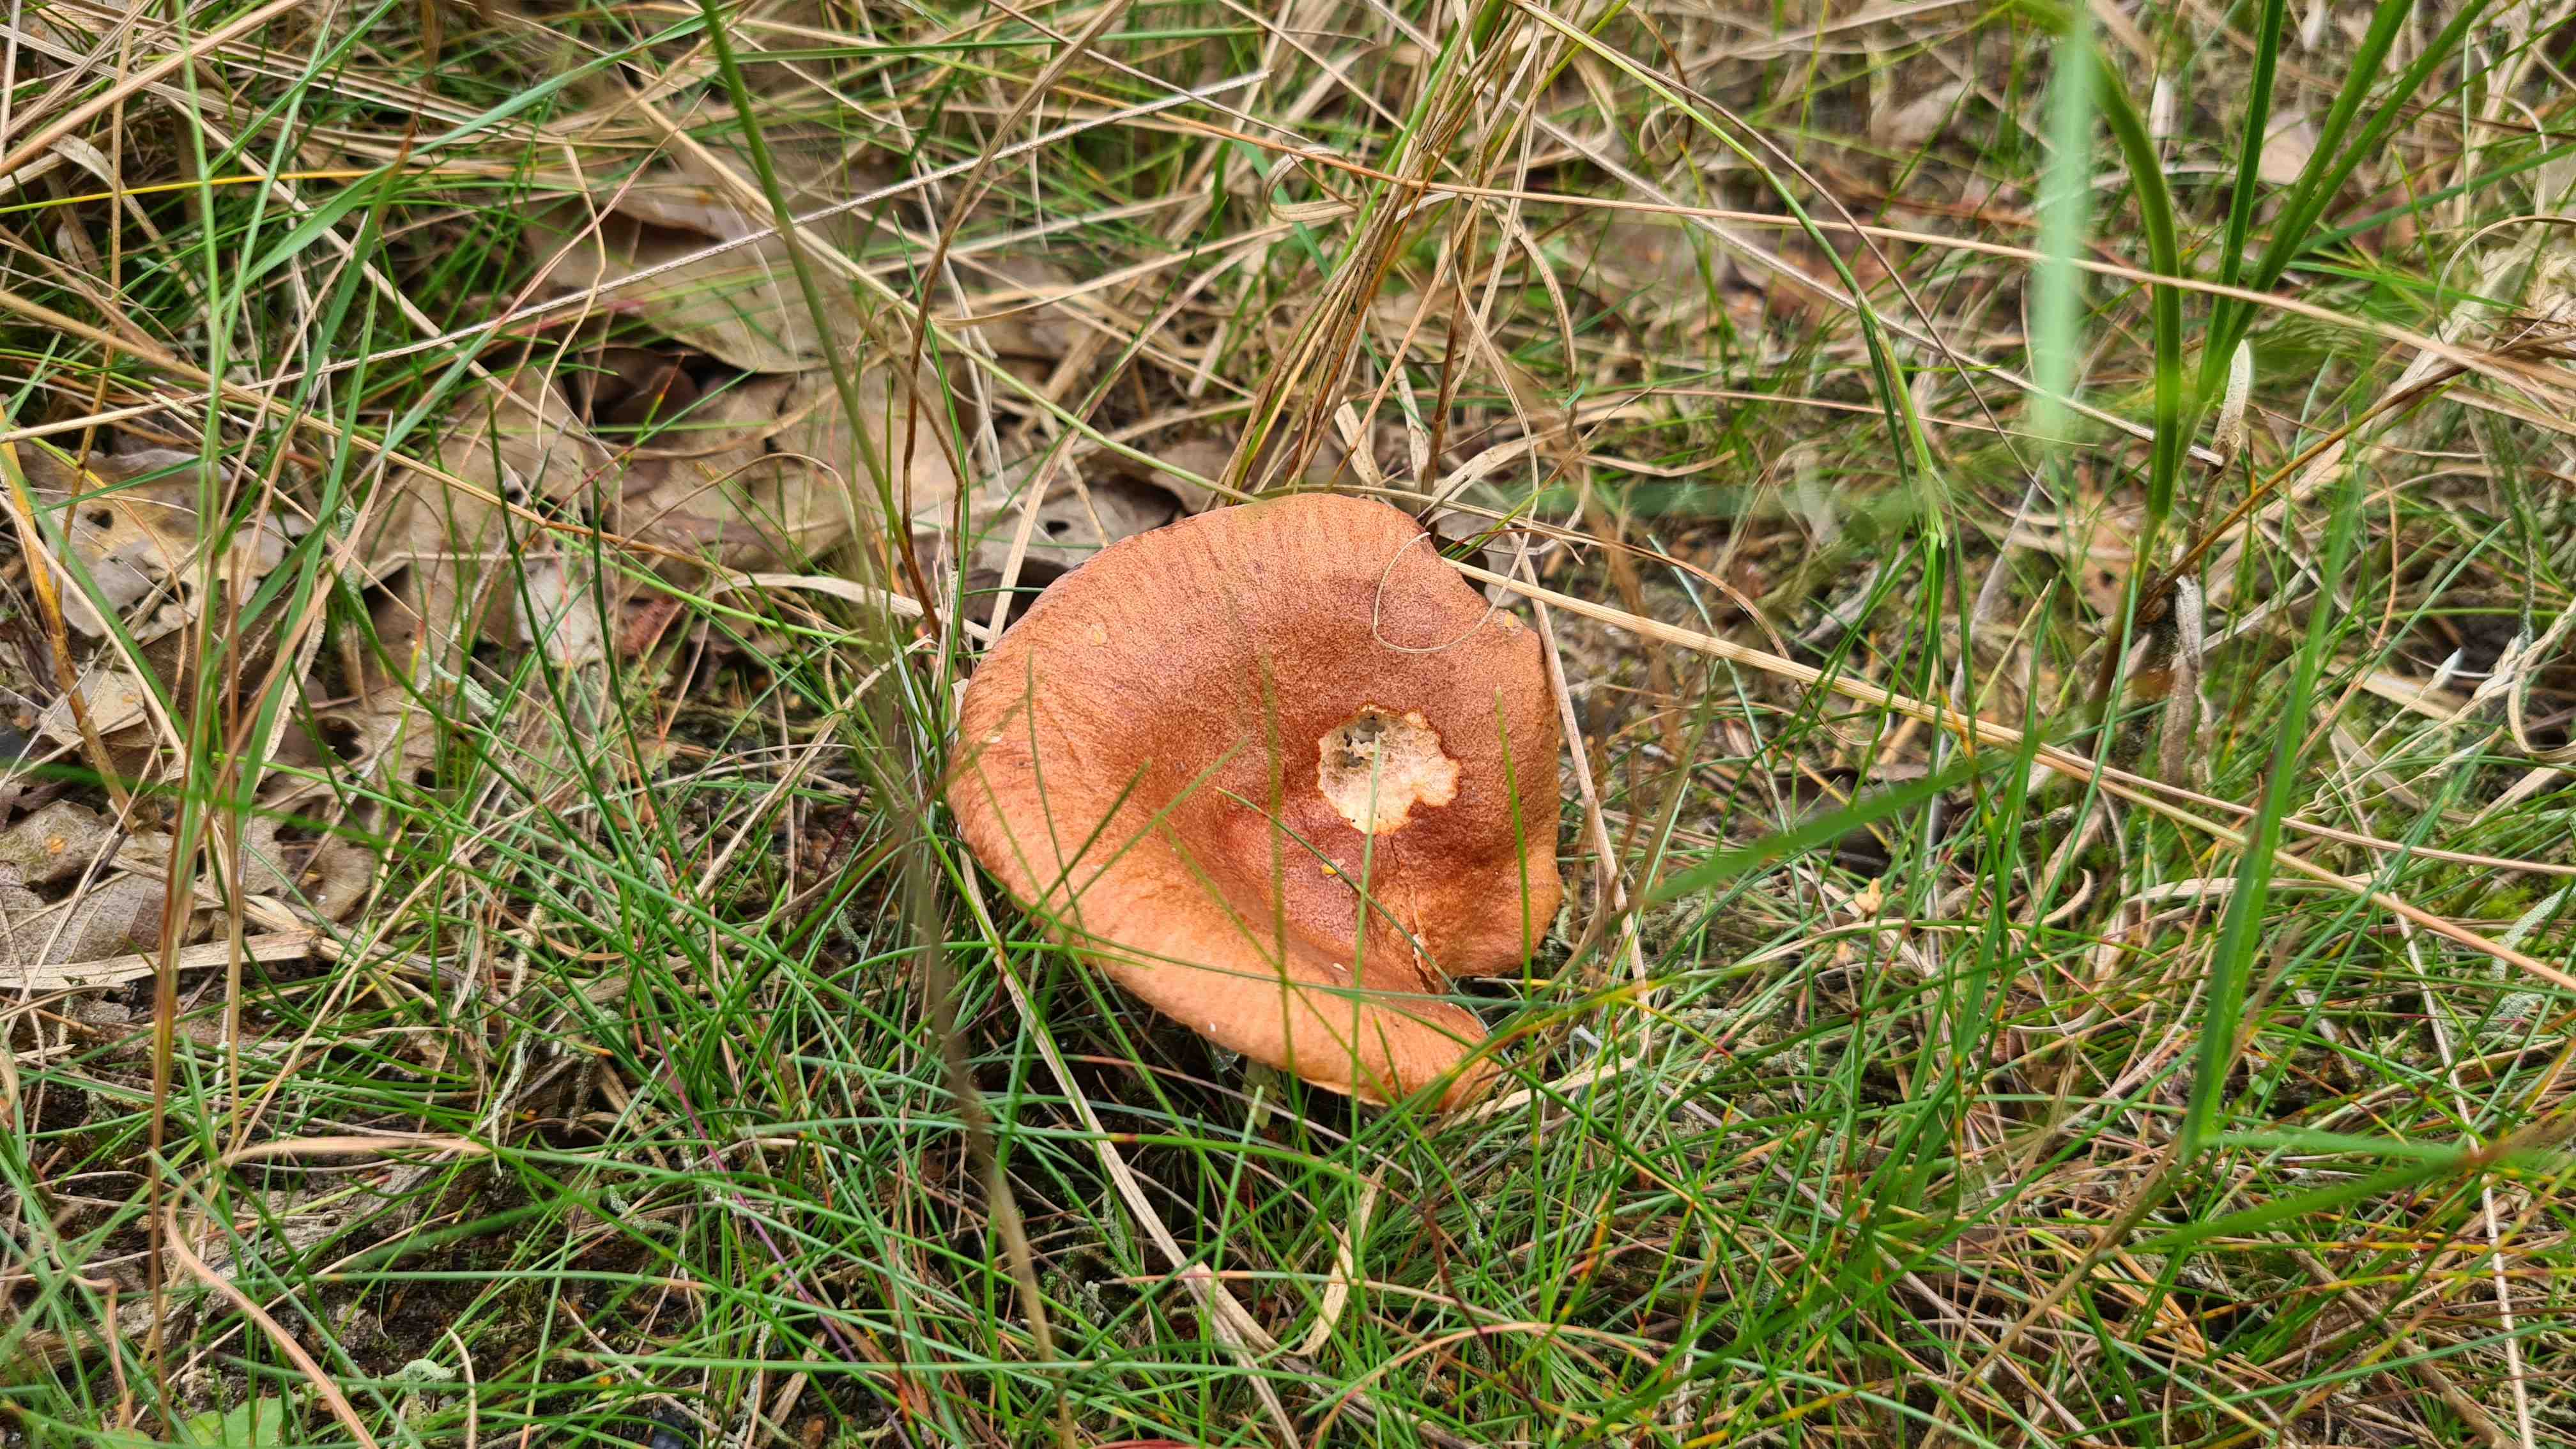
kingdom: Fungi
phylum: Basidiomycota
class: Agaricomycetes
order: Russulales
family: Russulaceae
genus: Lactarius
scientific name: Lactarius rufus
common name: rødbrun mælkehat
